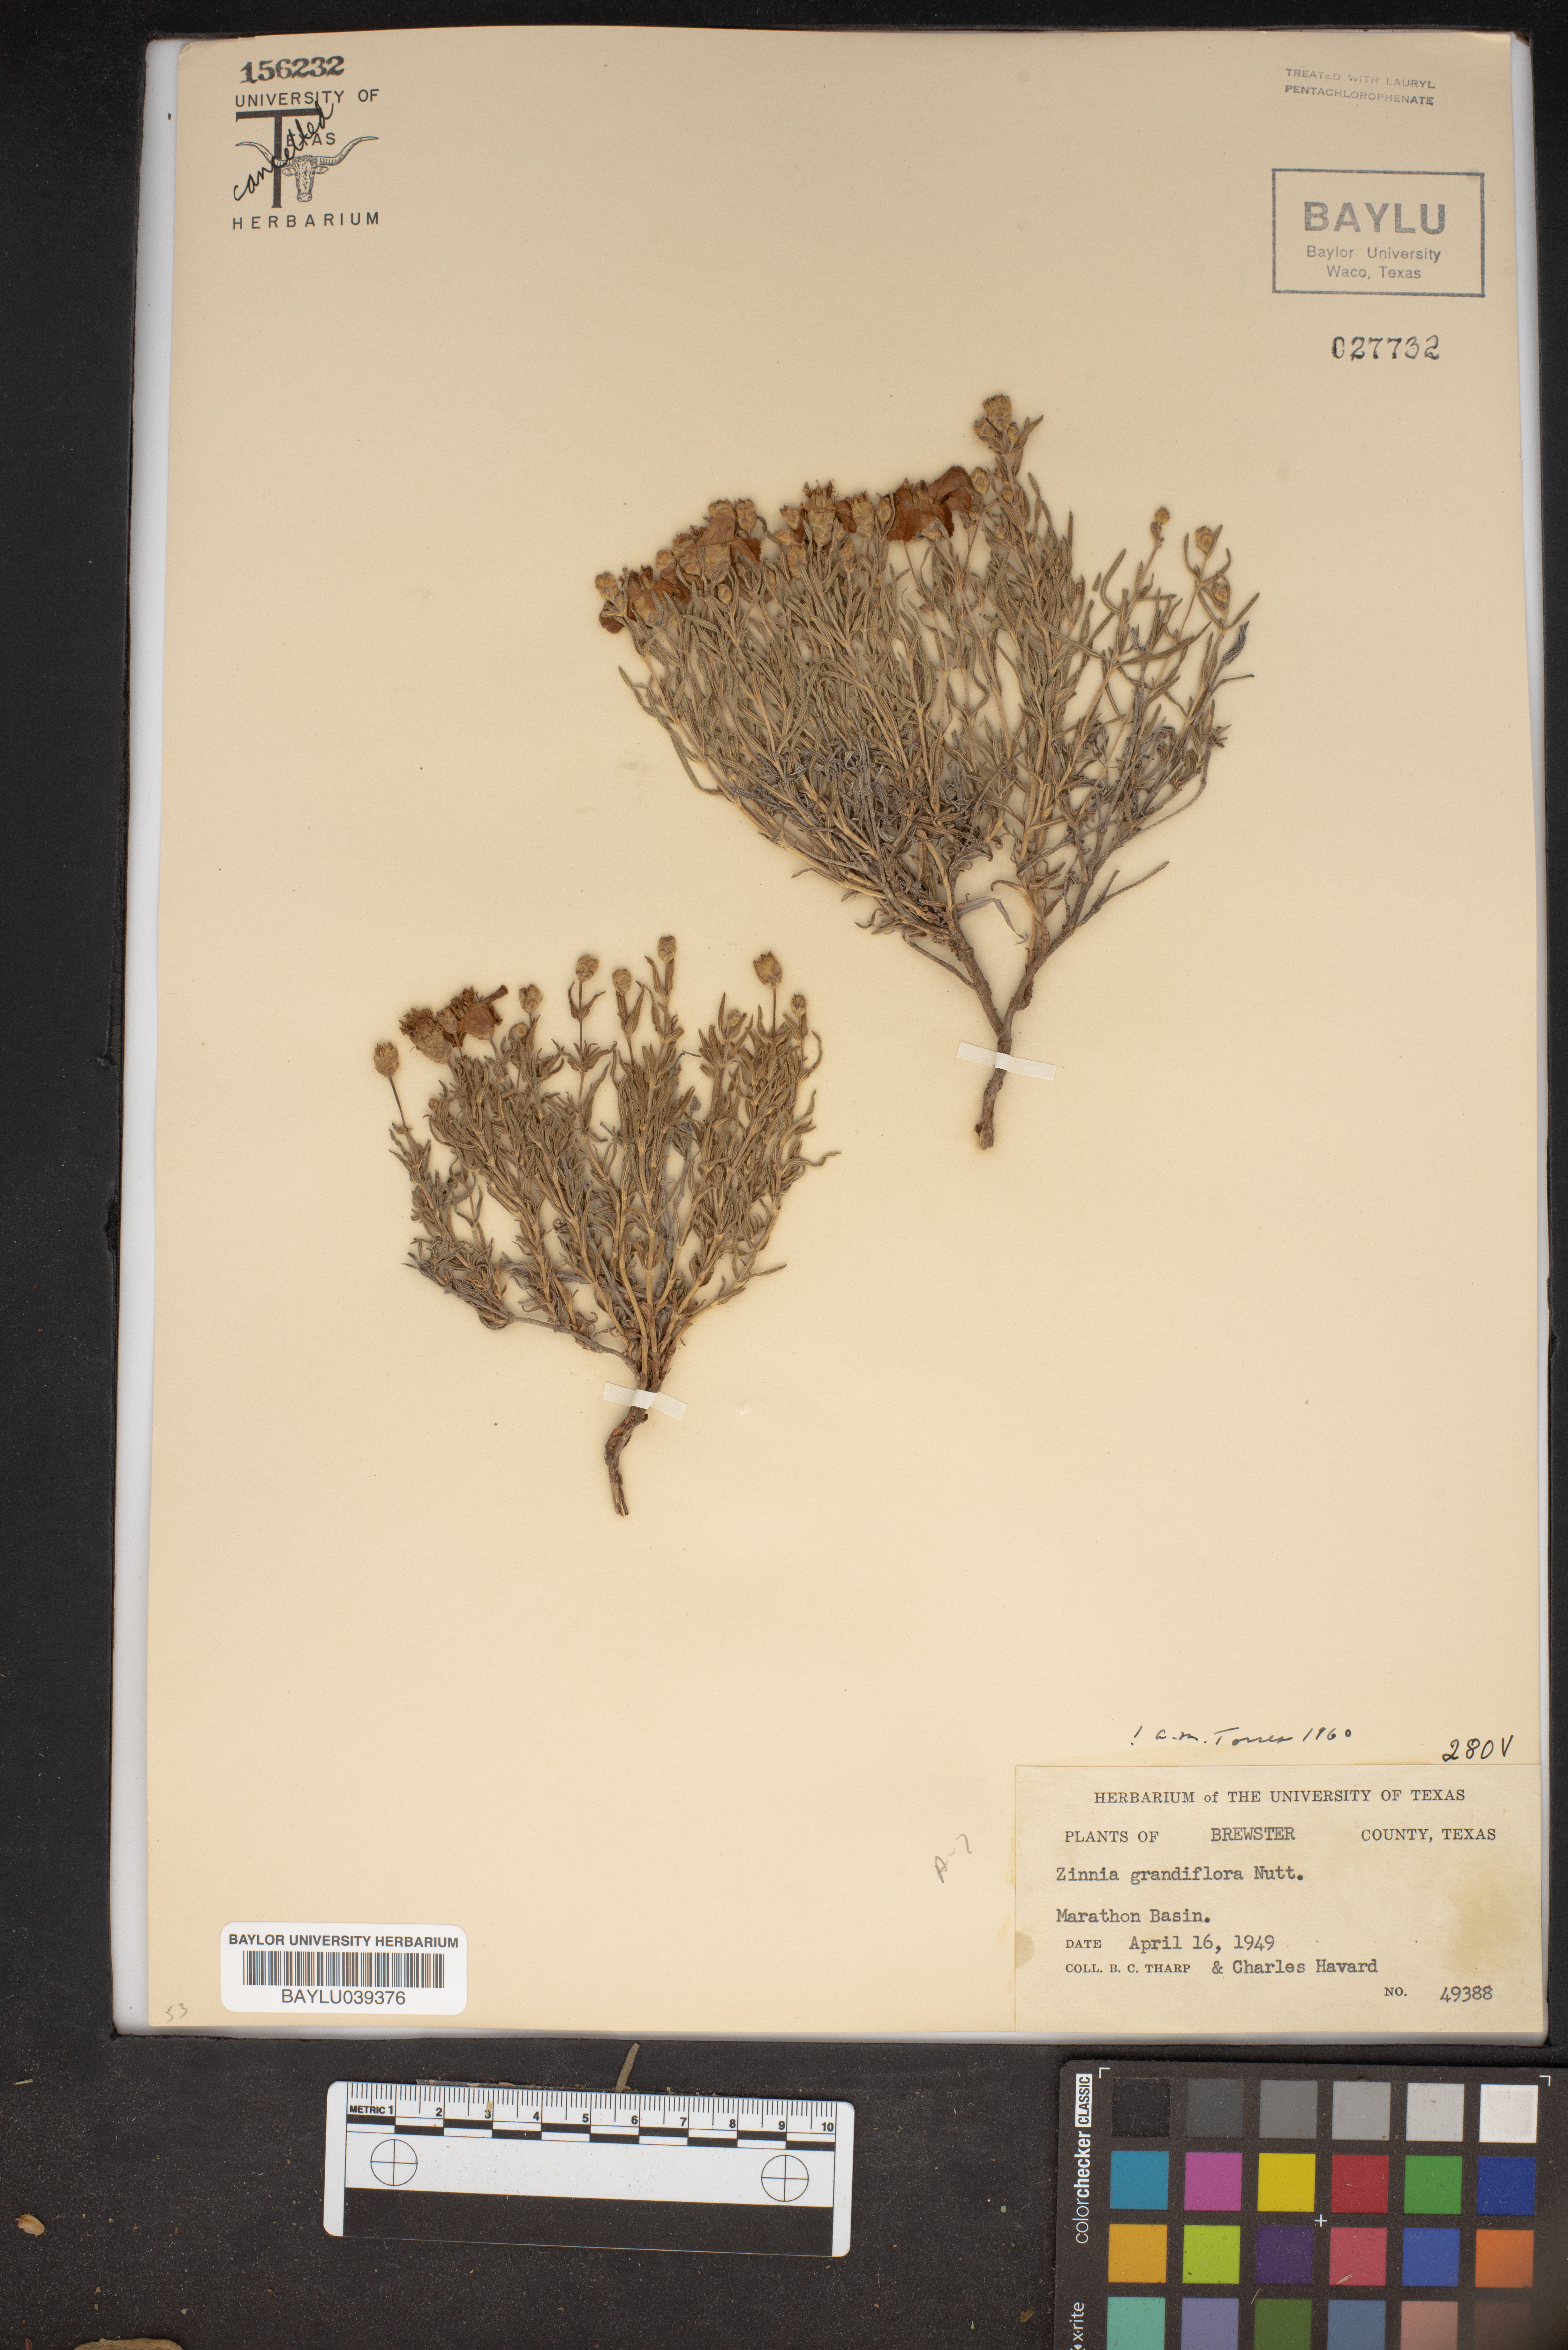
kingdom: Plantae
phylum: Tracheophyta
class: Magnoliopsida
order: Asterales
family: Asteraceae
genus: Zinnia
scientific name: Zinnia grandiflora
